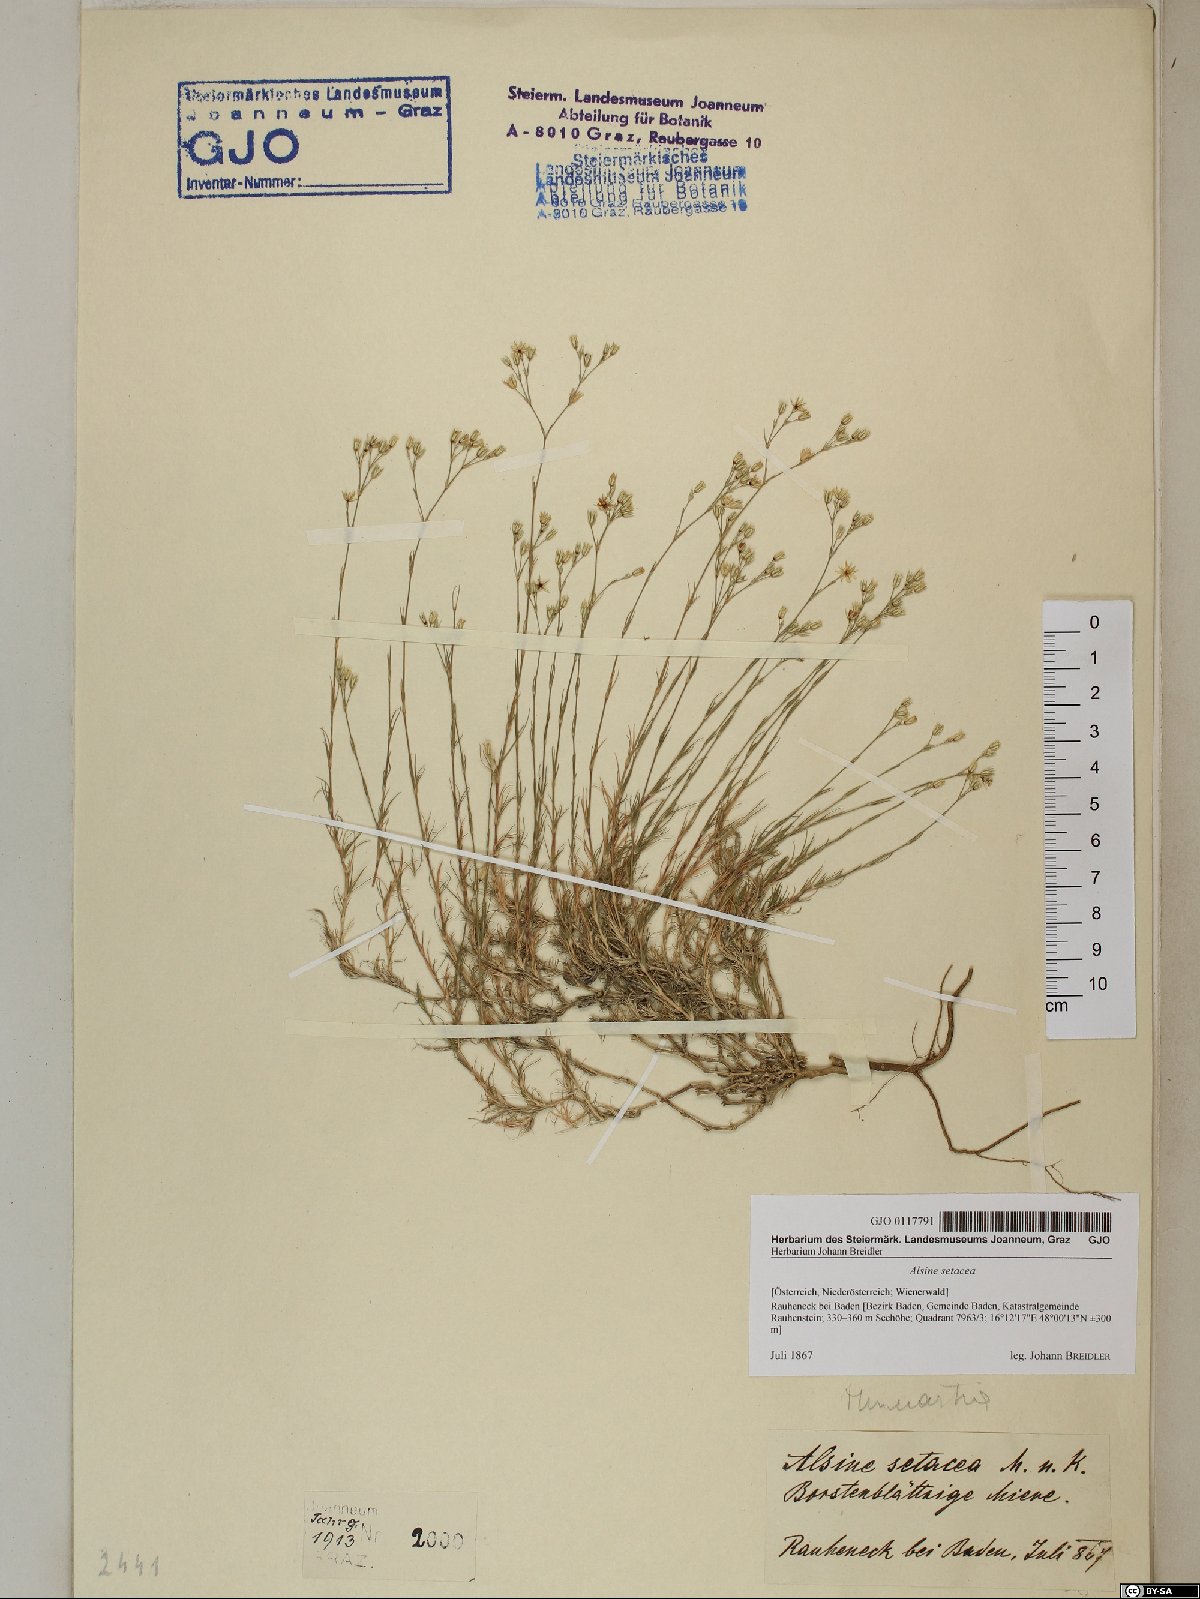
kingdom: Plantae
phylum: Tracheophyta
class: Magnoliopsida
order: Caryophyllales
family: Caryophyllaceae
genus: Minuartia
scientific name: Minuartia setacea
